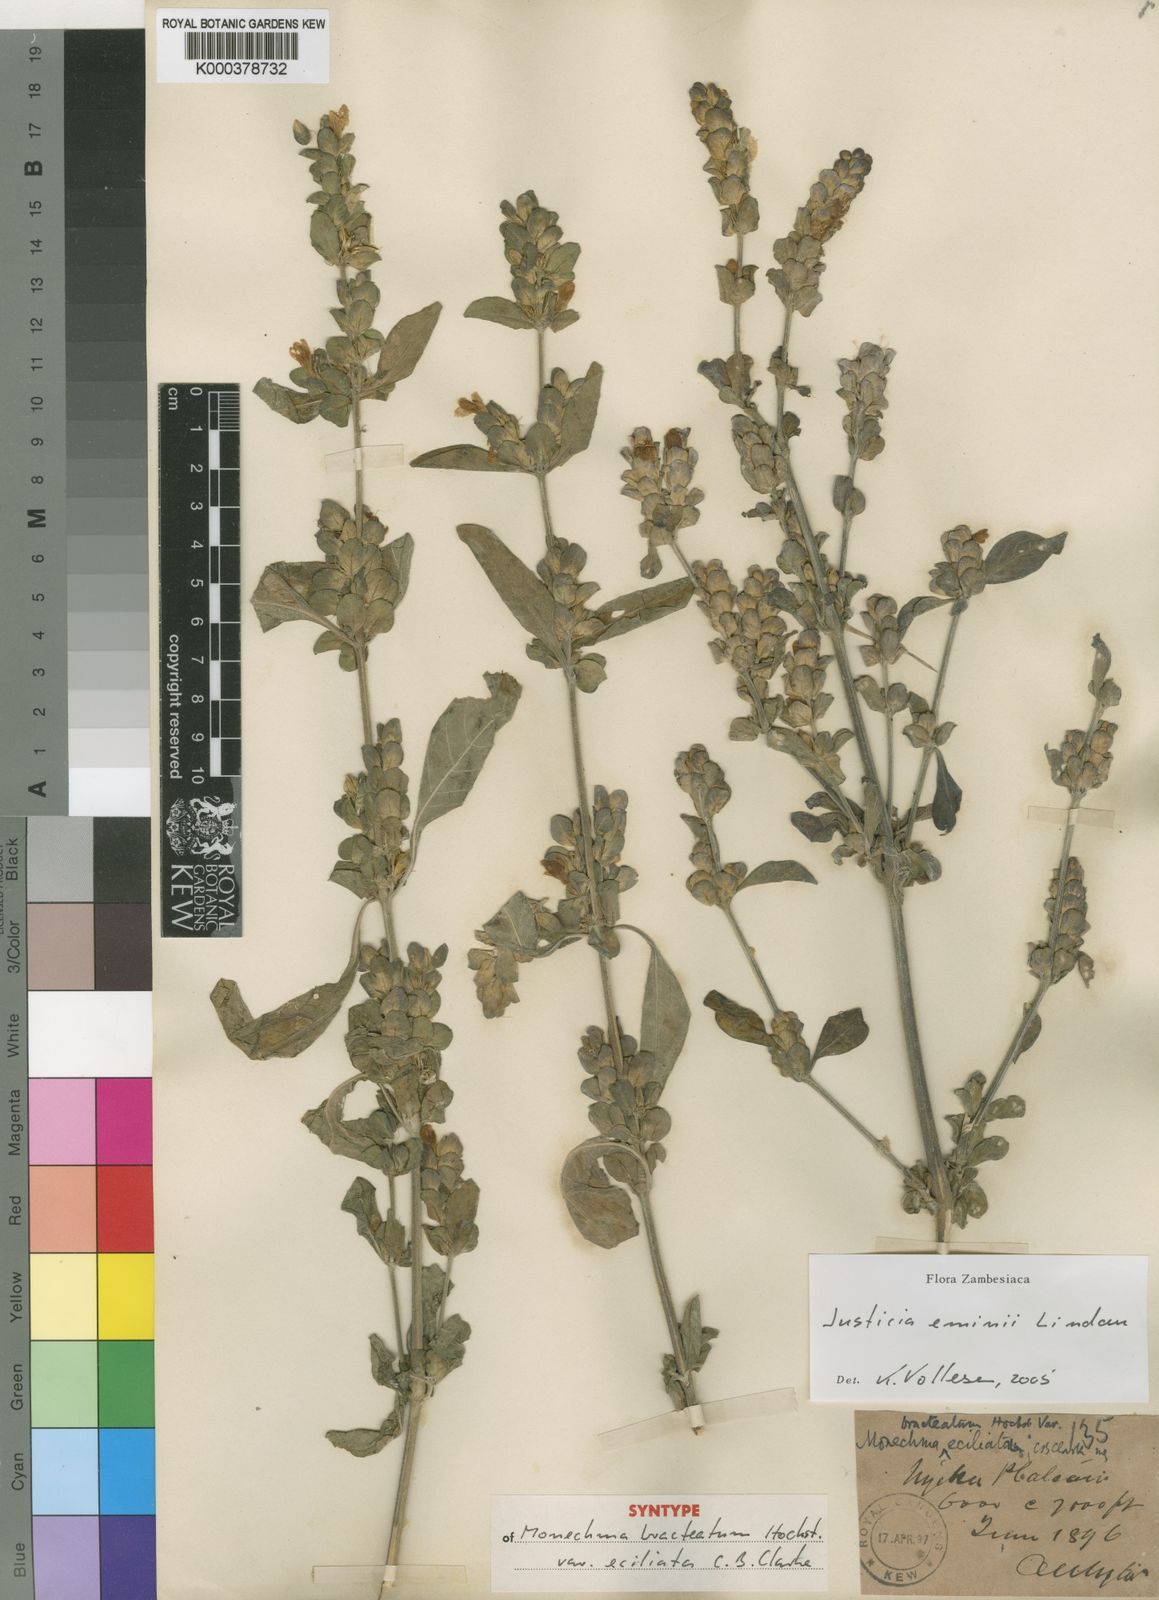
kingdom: Plantae
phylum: Tracheophyta
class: Magnoliopsida
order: Lamiales
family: Acanthaceae
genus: Monechma
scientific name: Monechma debile
